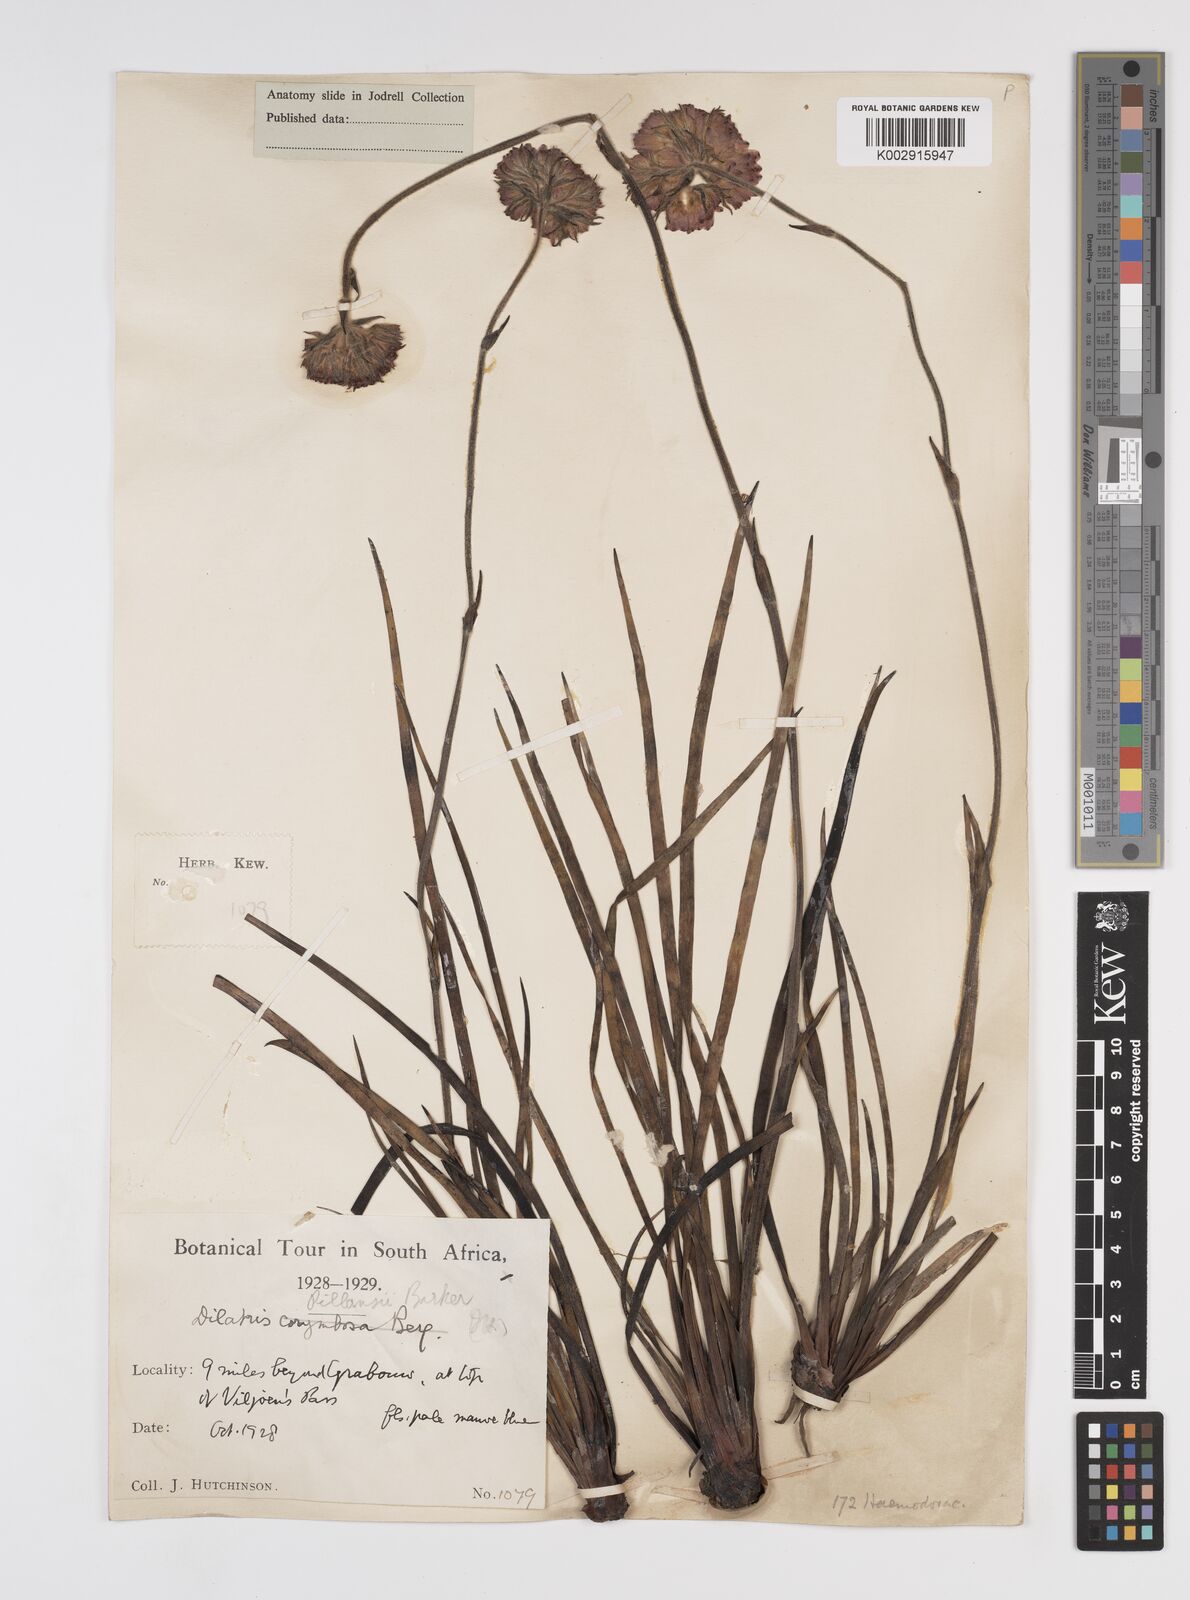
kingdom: Plantae
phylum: Tracheophyta
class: Liliopsida
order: Commelinales
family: Haemodoraceae
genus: Dilatris
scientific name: Dilatris pillansii
